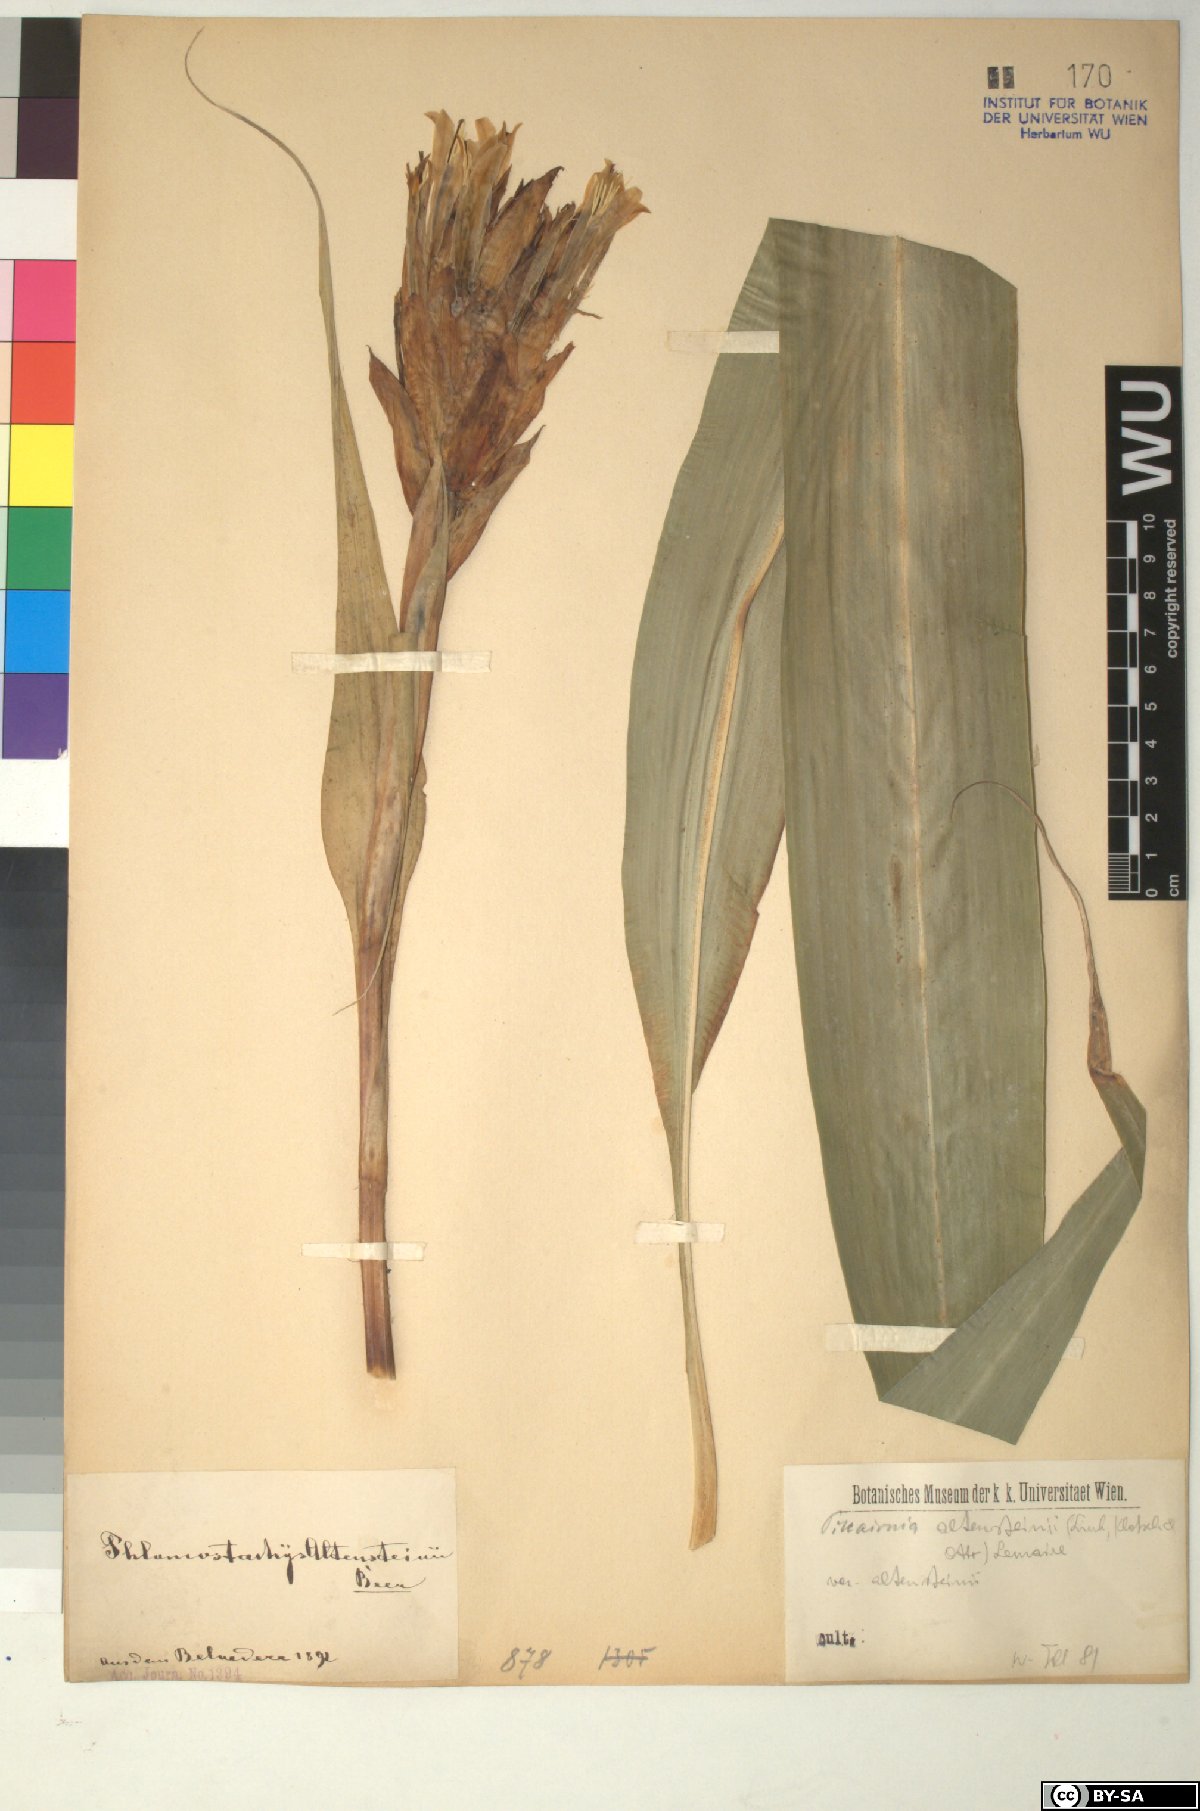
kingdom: Plantae
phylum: Tracheophyta
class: Liliopsida
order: Poales
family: Bromeliaceae
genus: Pitcairnia
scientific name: Pitcairnia altensteinii
